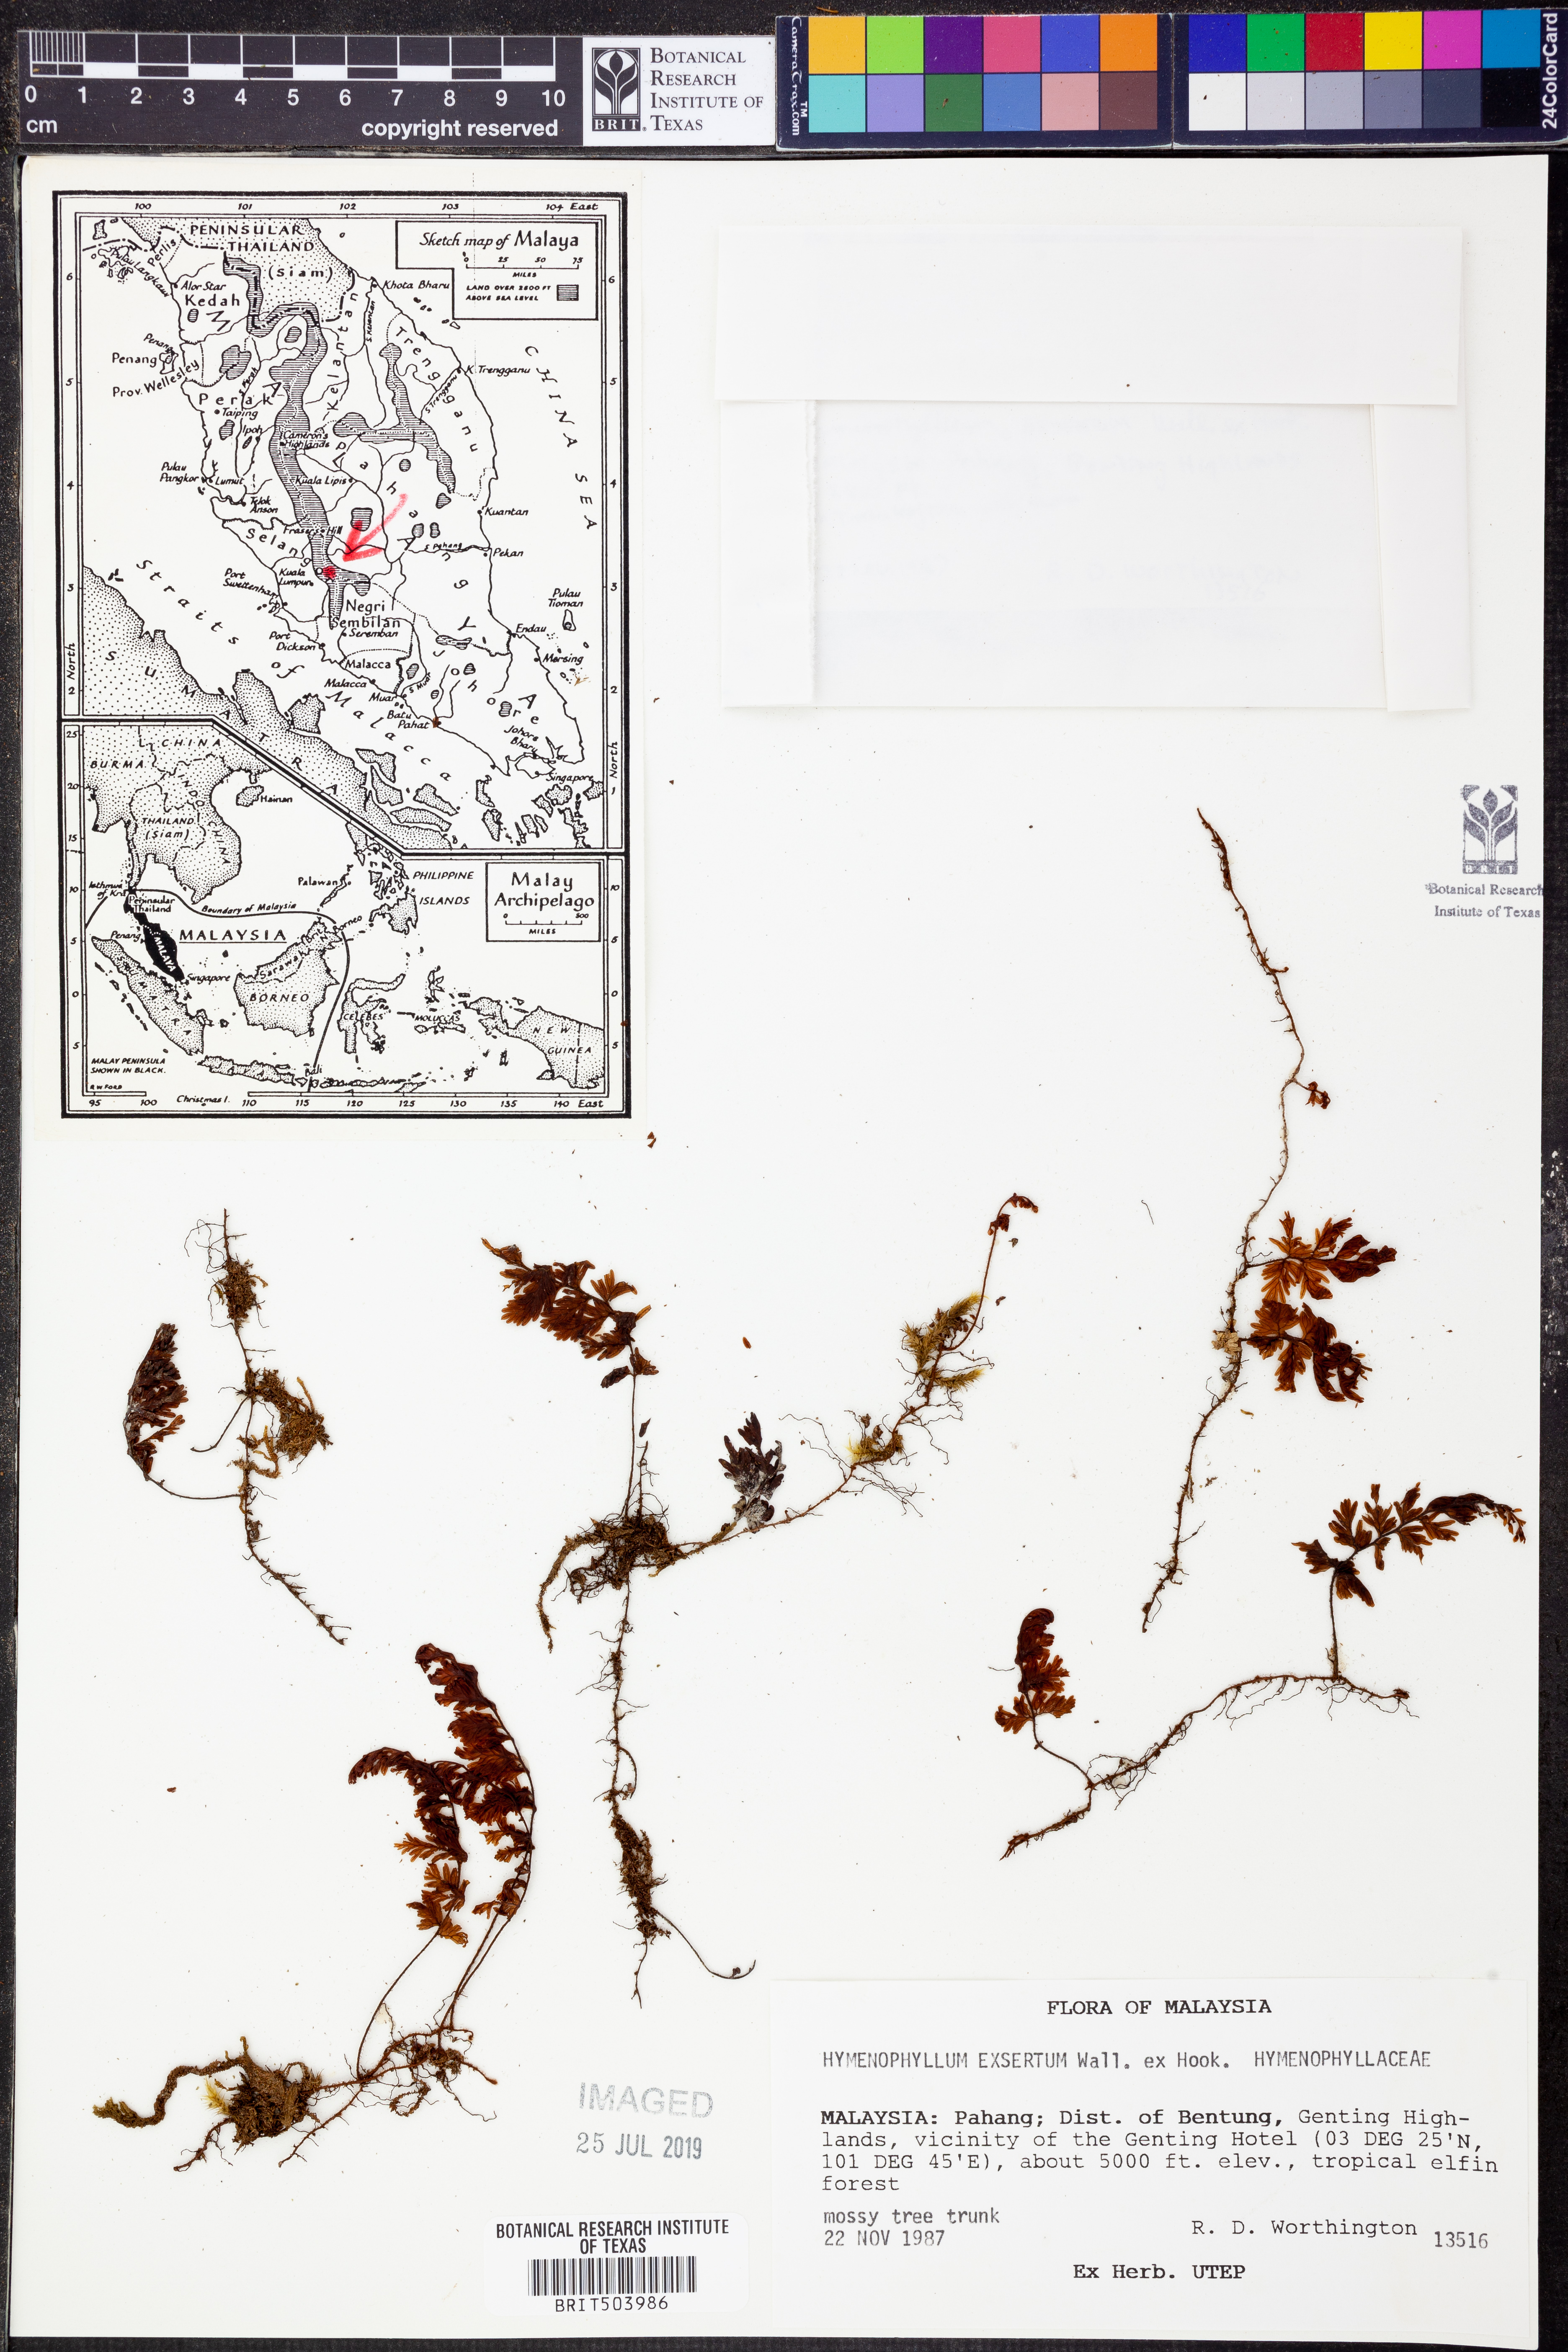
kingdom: Plantae
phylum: Tracheophyta
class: Polypodiopsida
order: Hymenophyllales
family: Hymenophyllaceae
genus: Hymenophyllum
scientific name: Hymenophyllum exsertum
